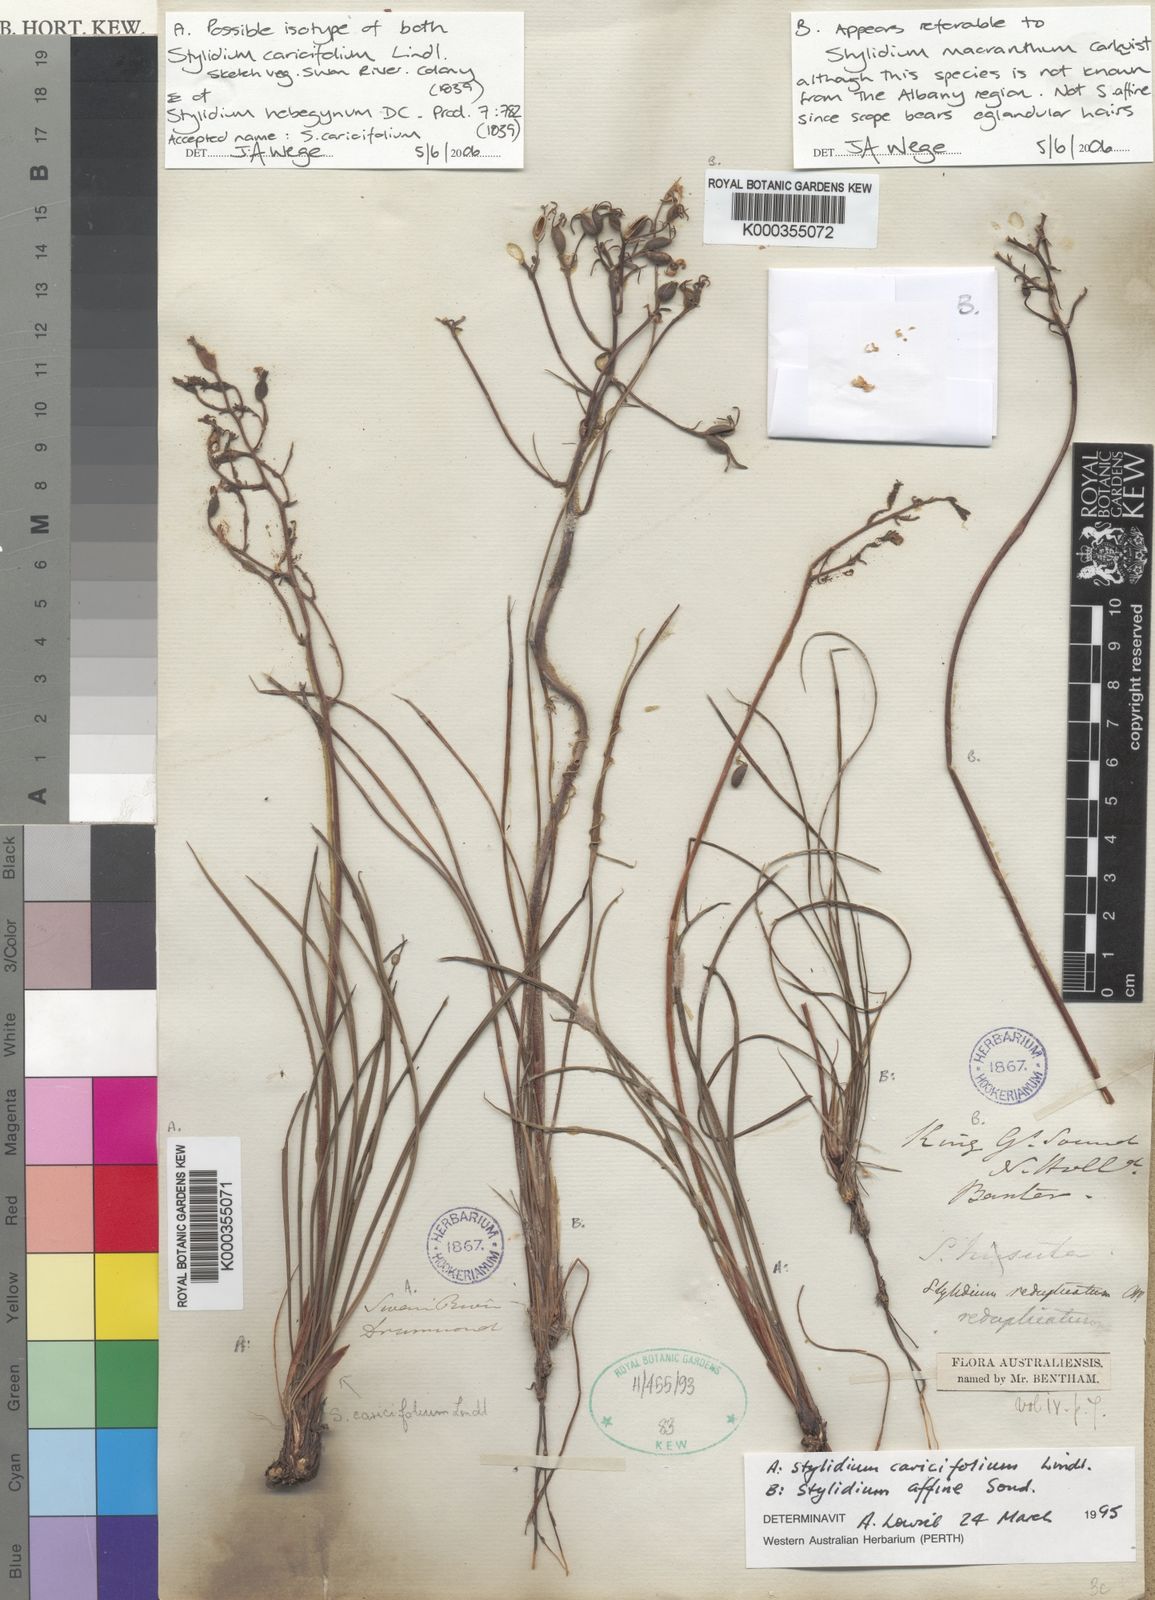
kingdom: Plantae
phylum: Tracheophyta
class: Magnoliopsida
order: Asterales
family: Stylidiaceae
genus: Stylidium
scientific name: Stylidium caricifolium
